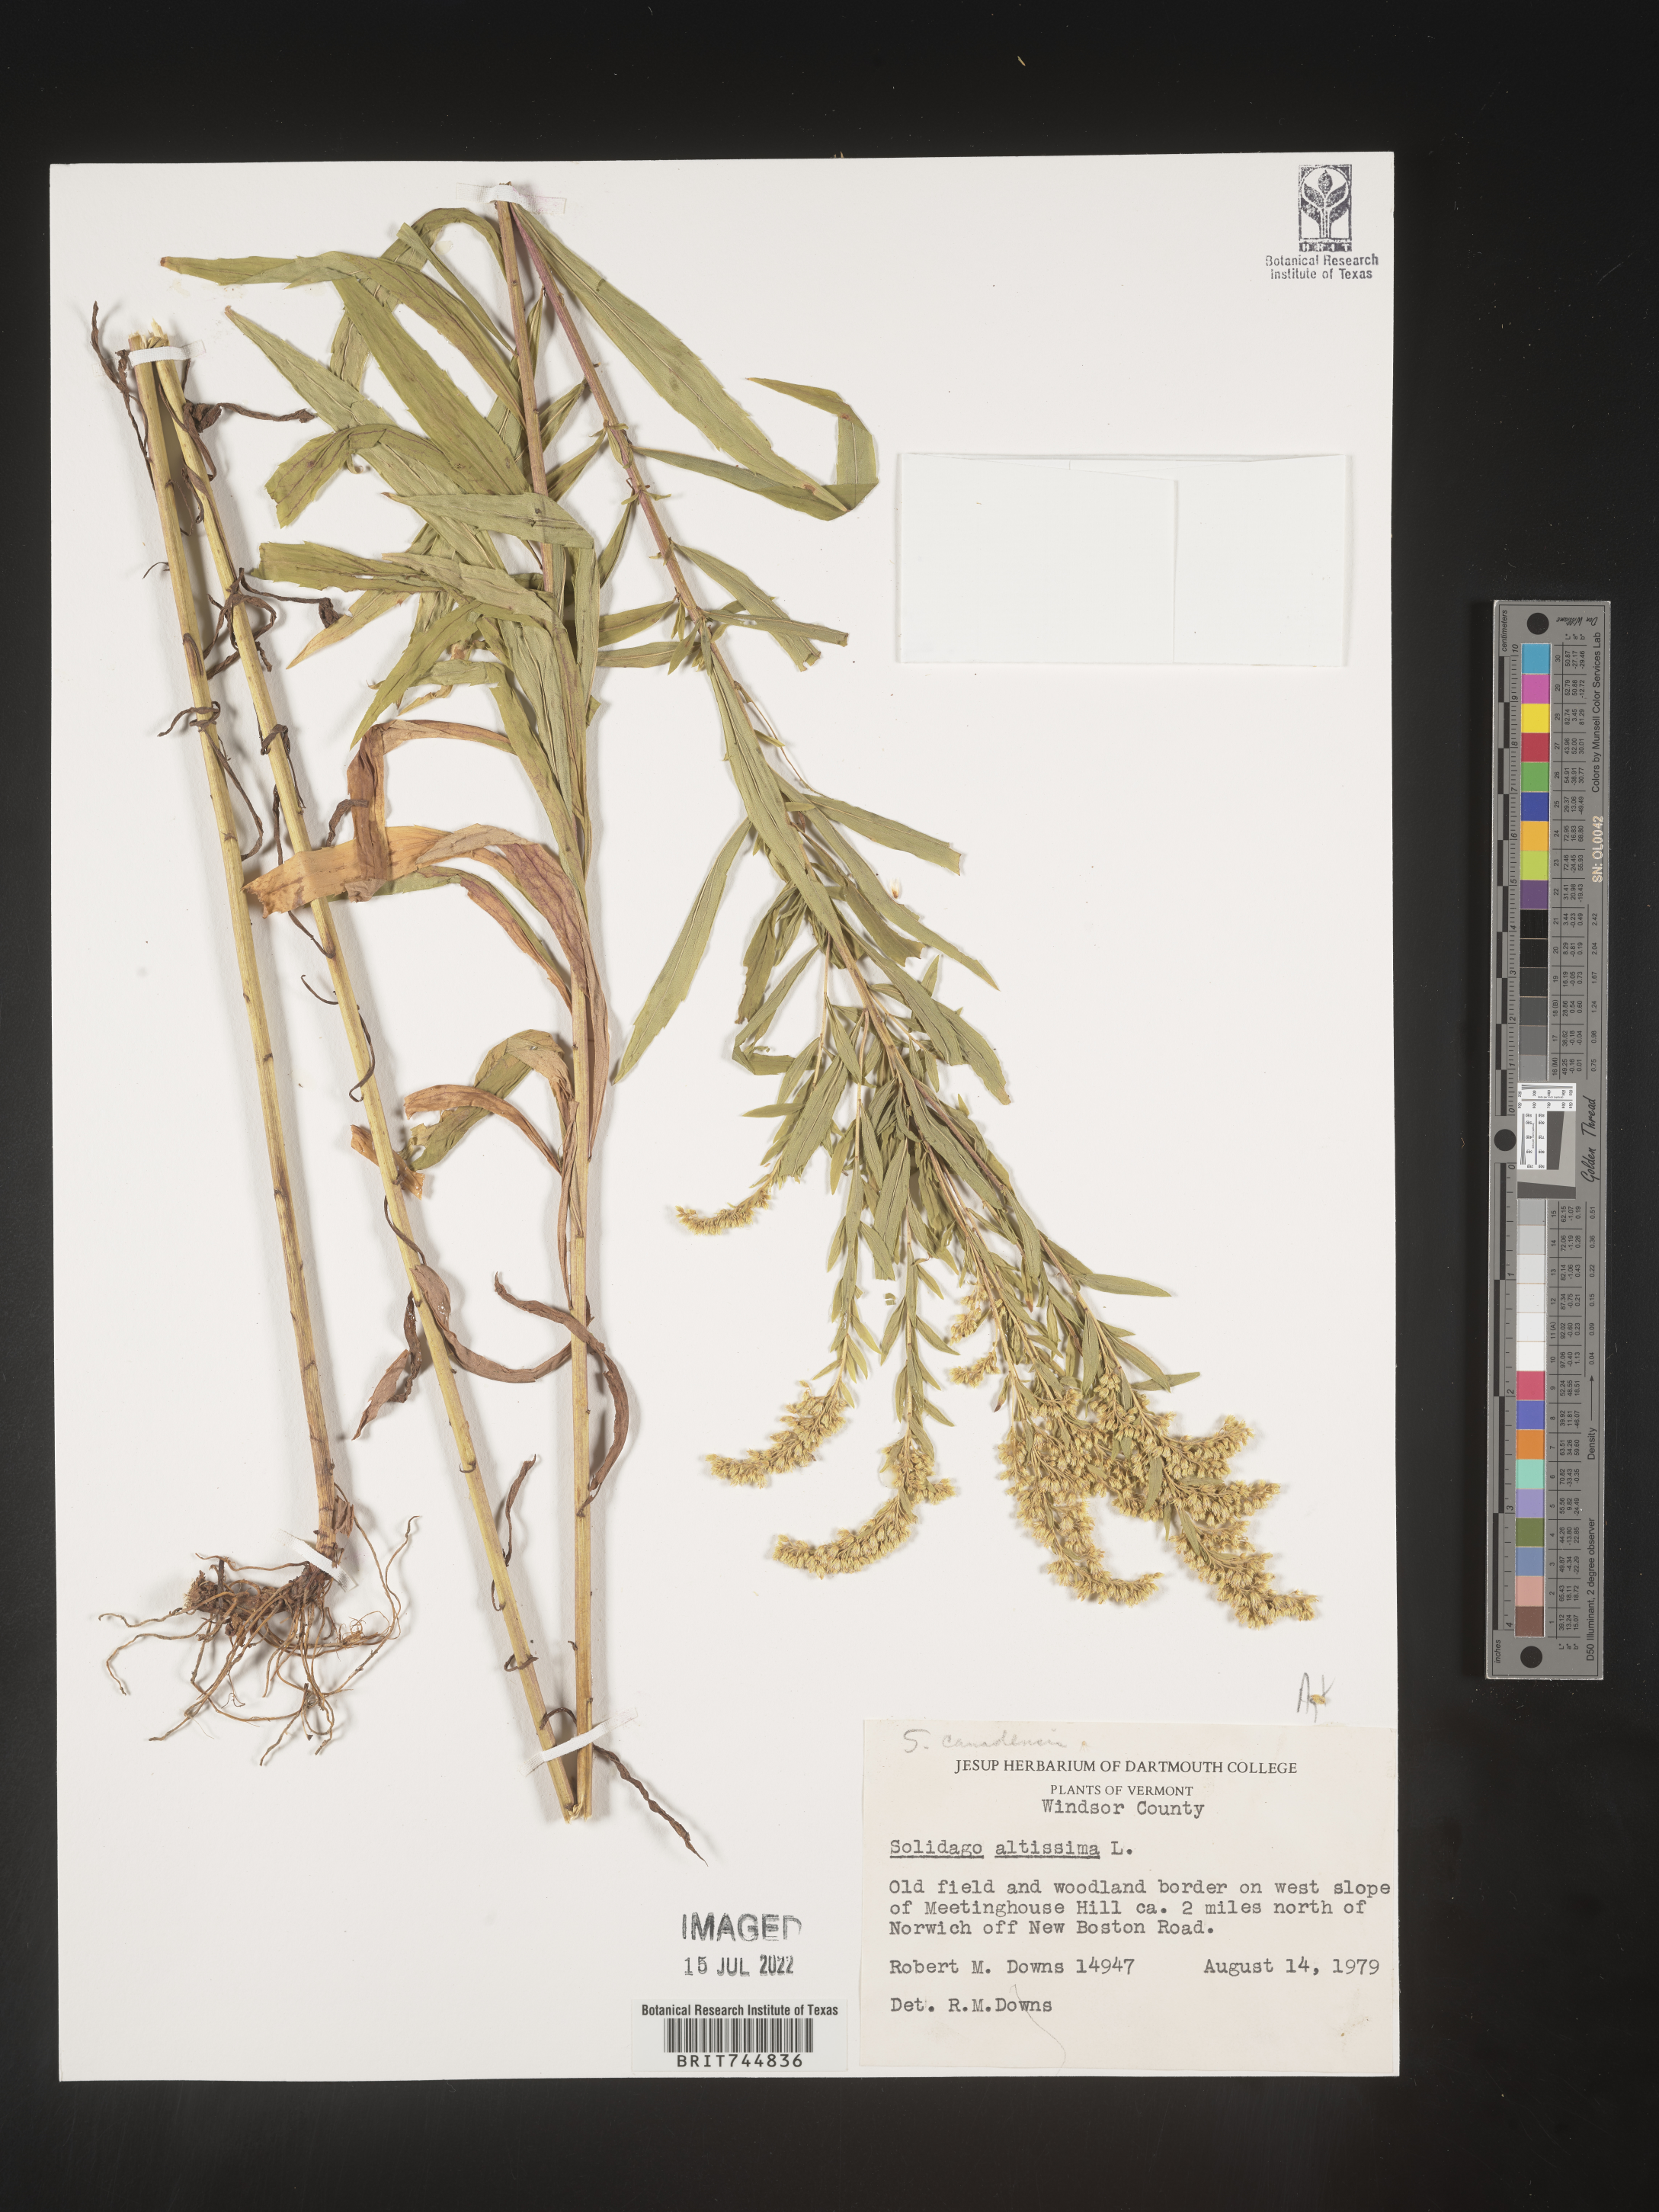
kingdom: Plantae
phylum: Tracheophyta
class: Magnoliopsida
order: Asterales
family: Asteraceae
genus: Solidago
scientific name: Solidago canadensis
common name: Canada goldenrod
